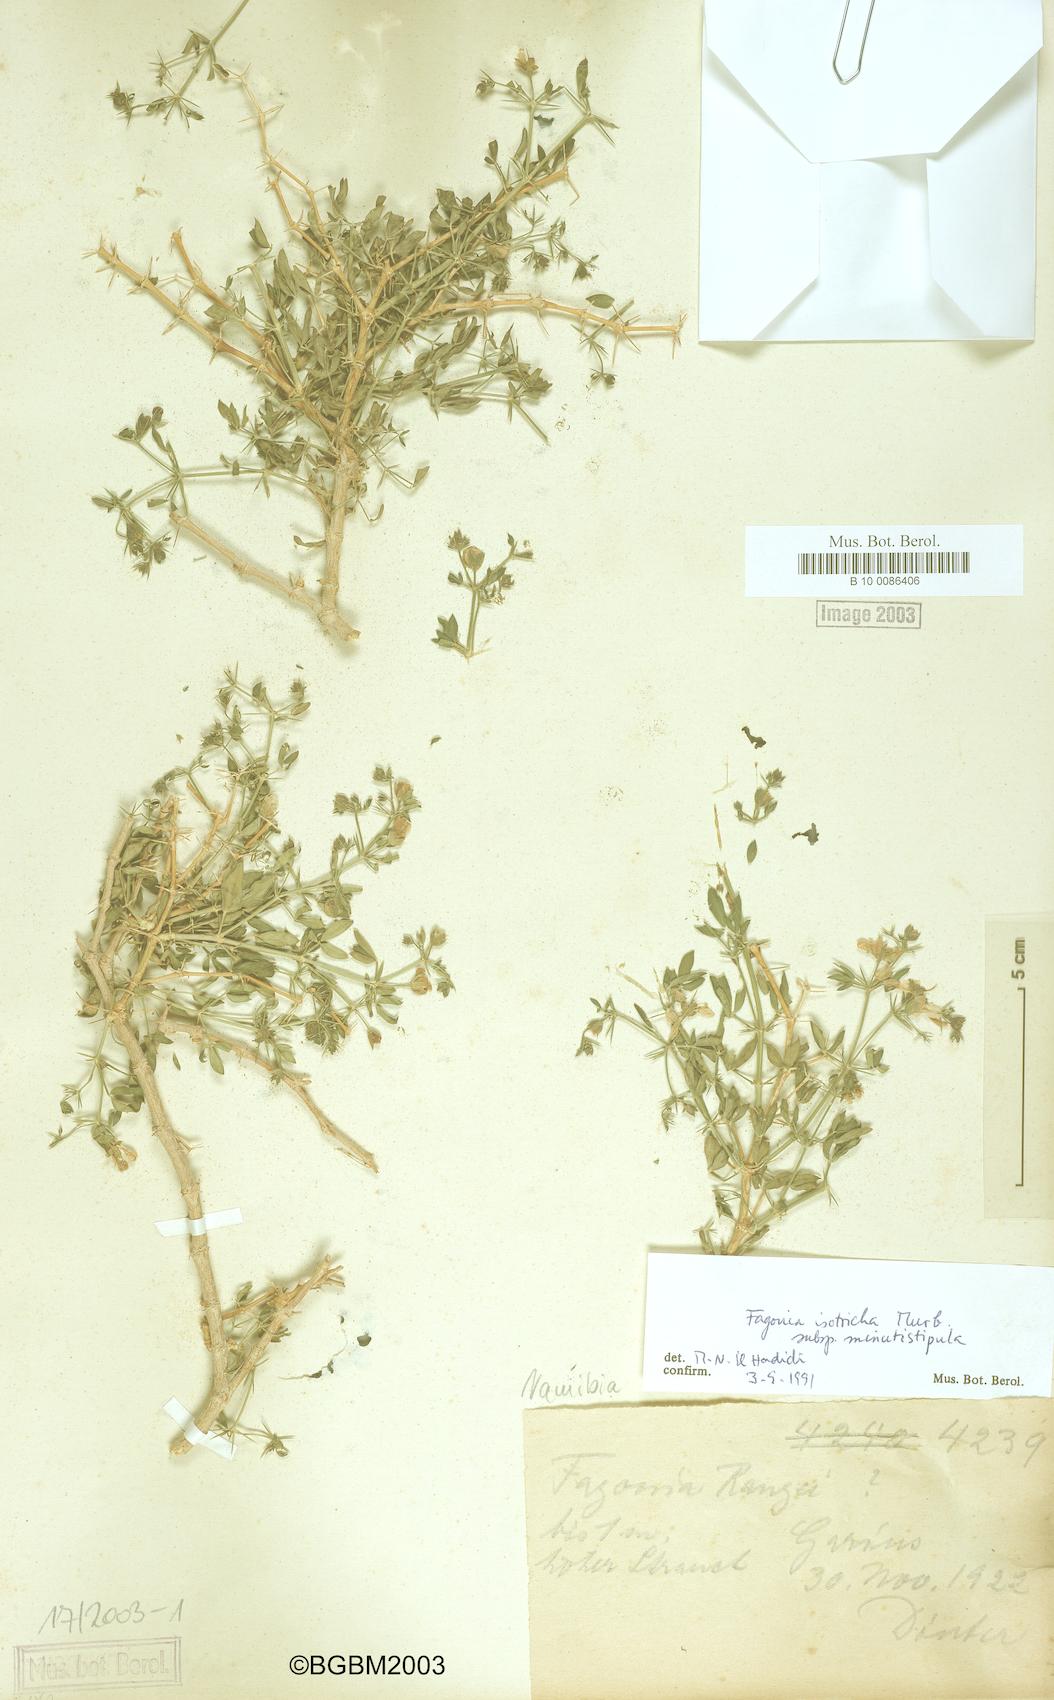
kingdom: Plantae
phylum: Tracheophyta
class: Magnoliopsida
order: Zygophyllales
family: Zygophyllaceae
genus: Fagonia
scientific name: Fagonia latifolia
